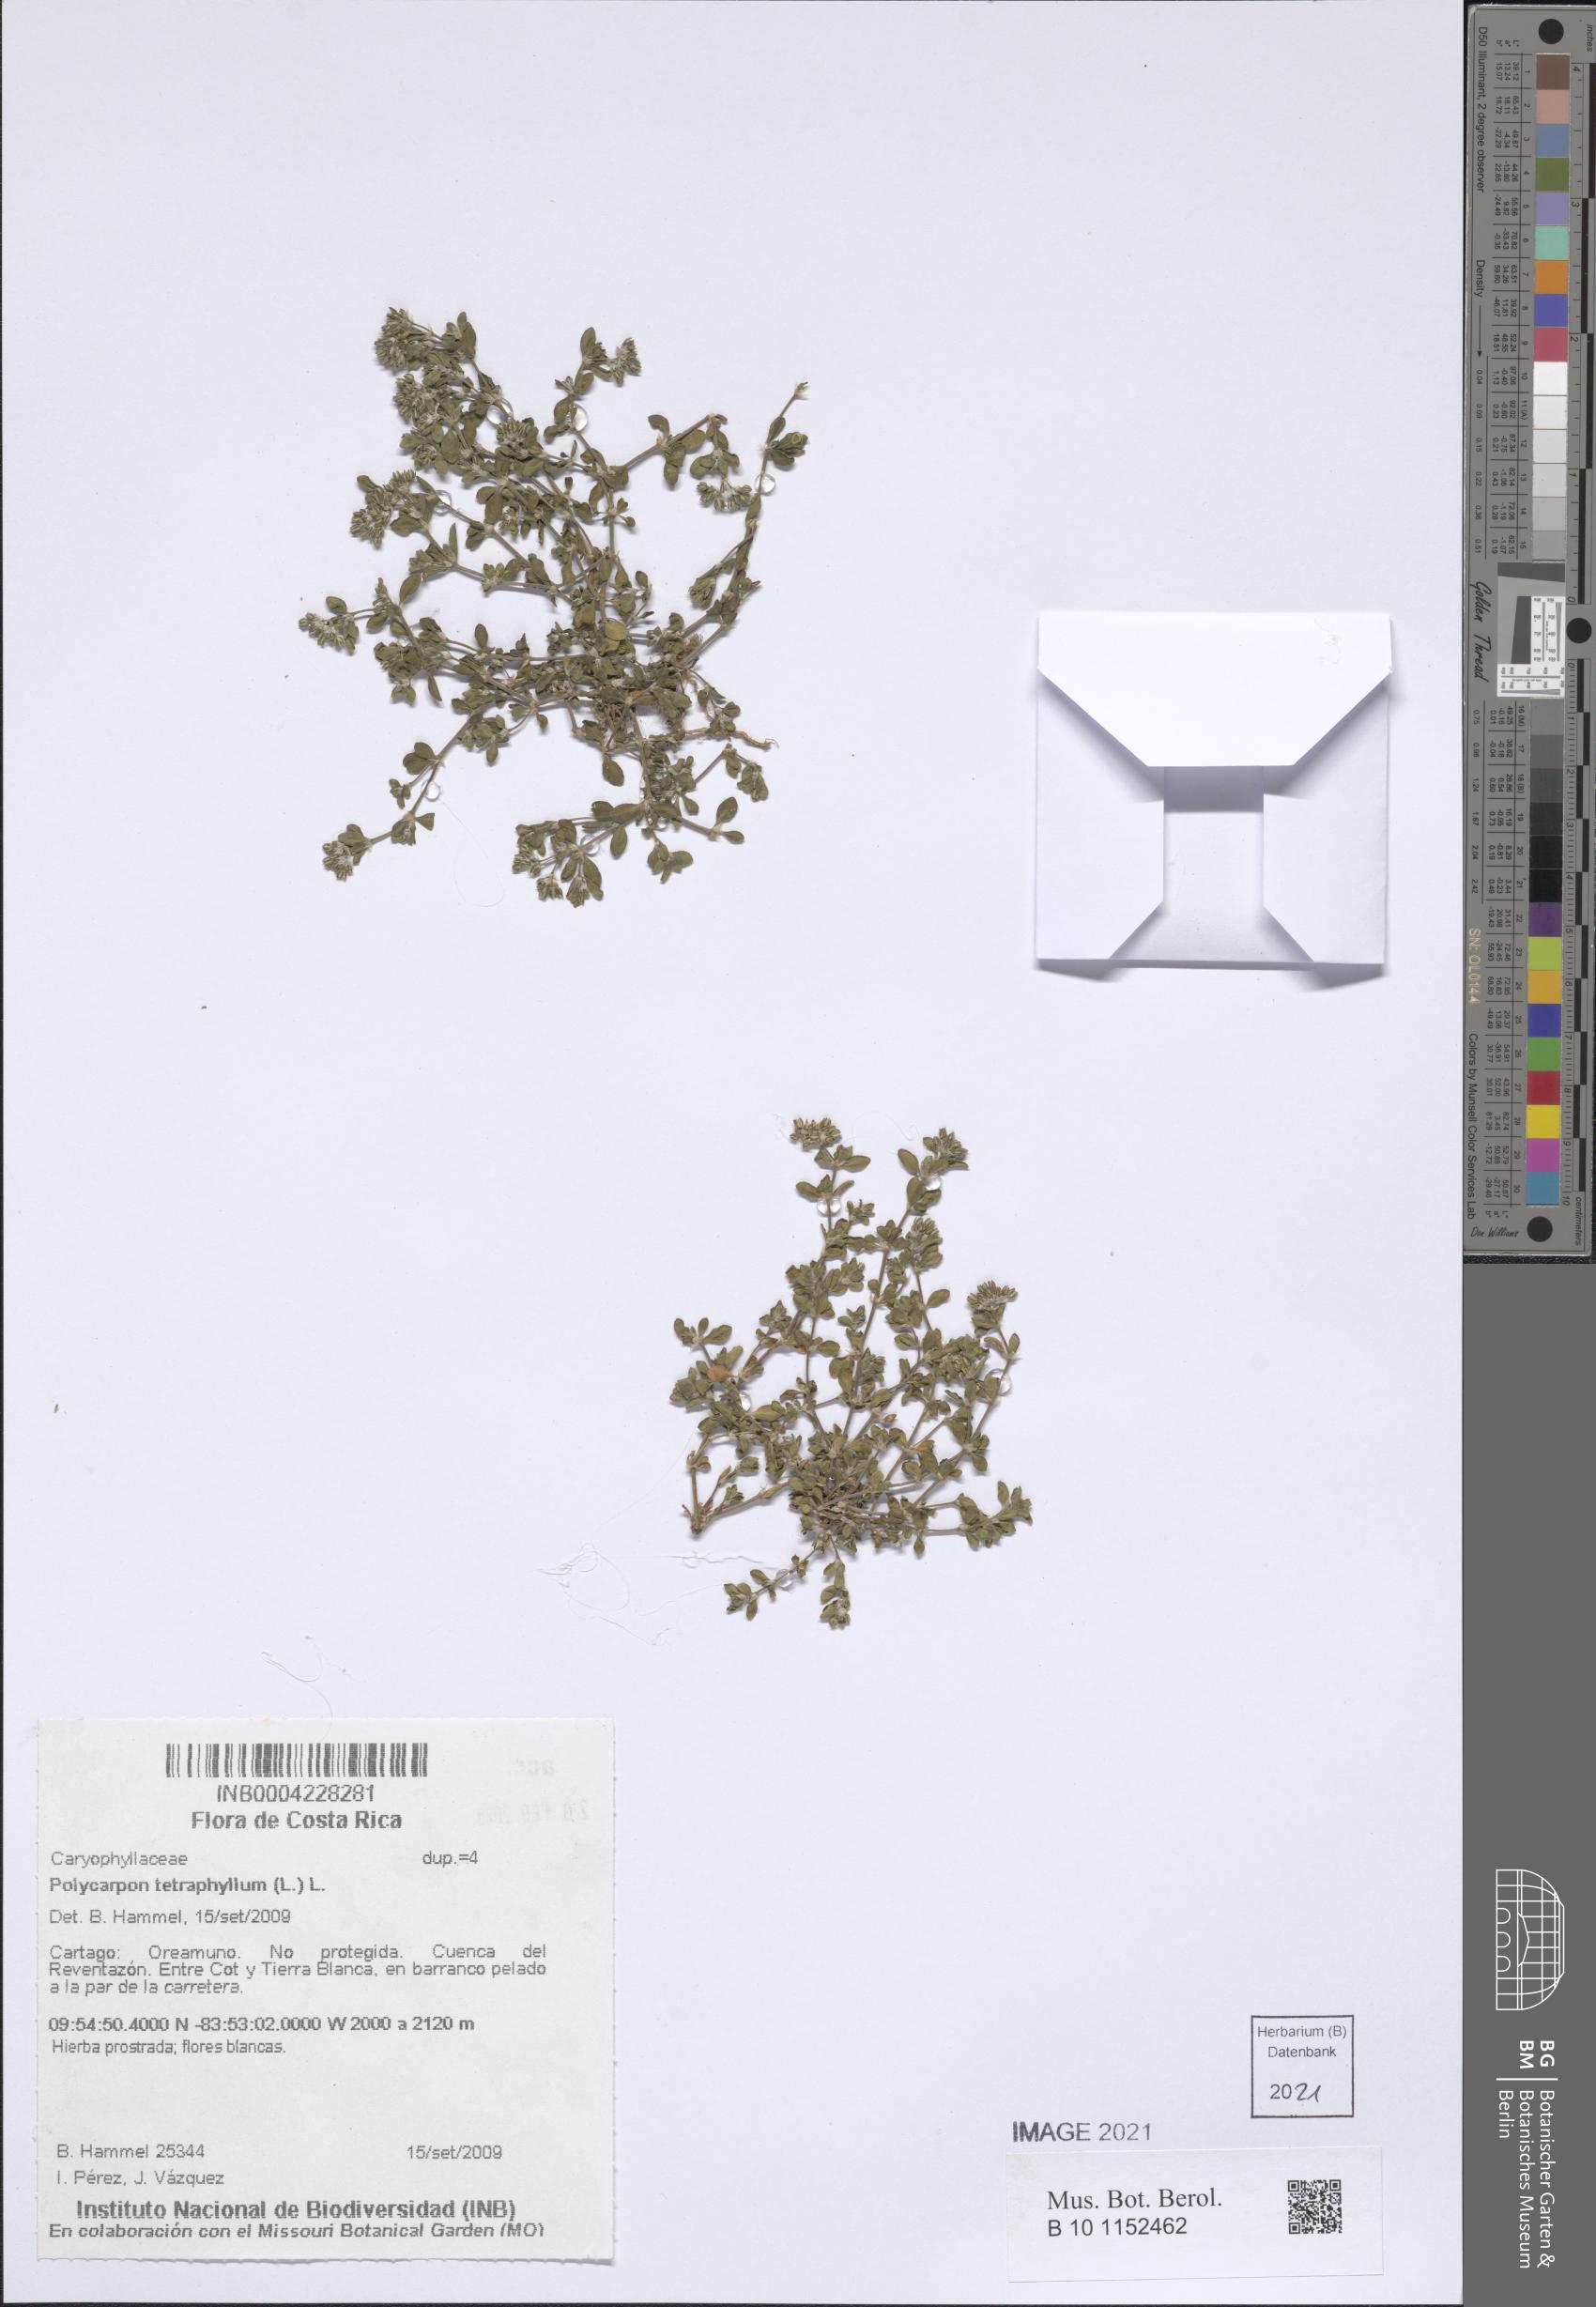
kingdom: Plantae
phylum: Tracheophyta
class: Magnoliopsida
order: Caryophyllales
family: Caryophyllaceae
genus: Polycarpon
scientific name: Polycarpon tetraphyllum
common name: Four-leaved all-seed
